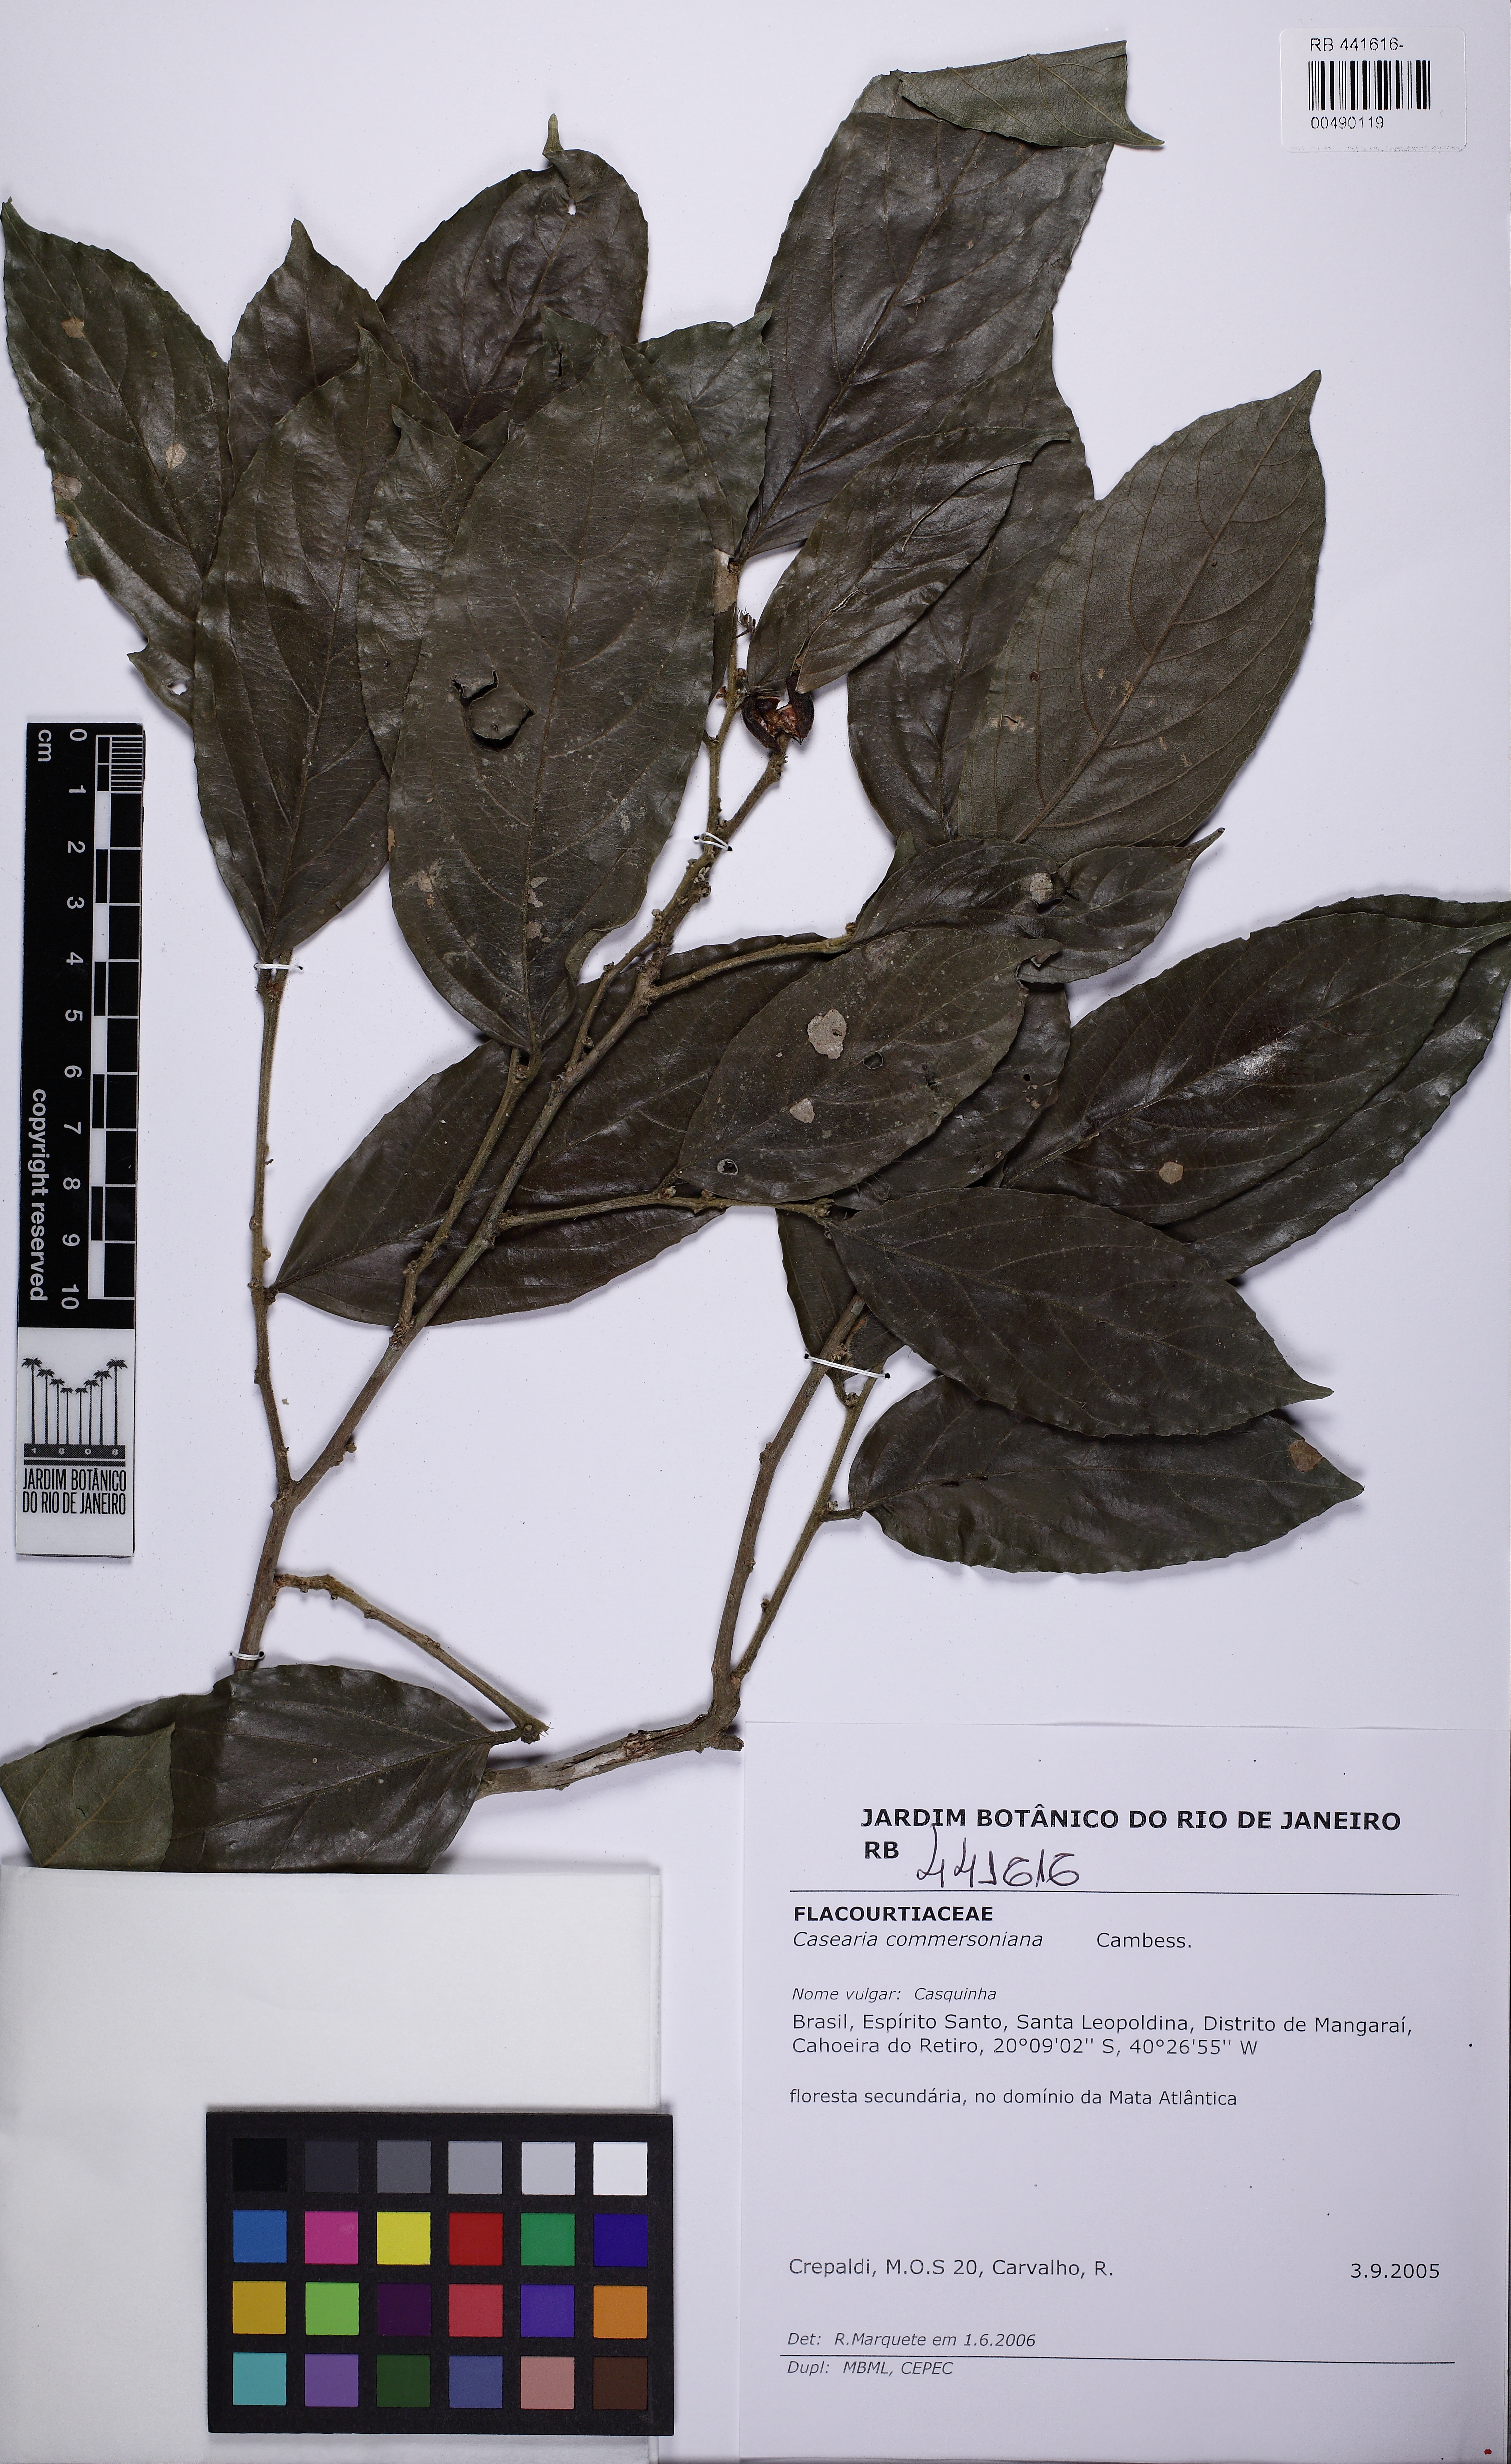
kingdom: Plantae
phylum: Tracheophyta
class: Magnoliopsida
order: Malpighiales
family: Salicaceae
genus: Piparea
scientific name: Piparea dentata
